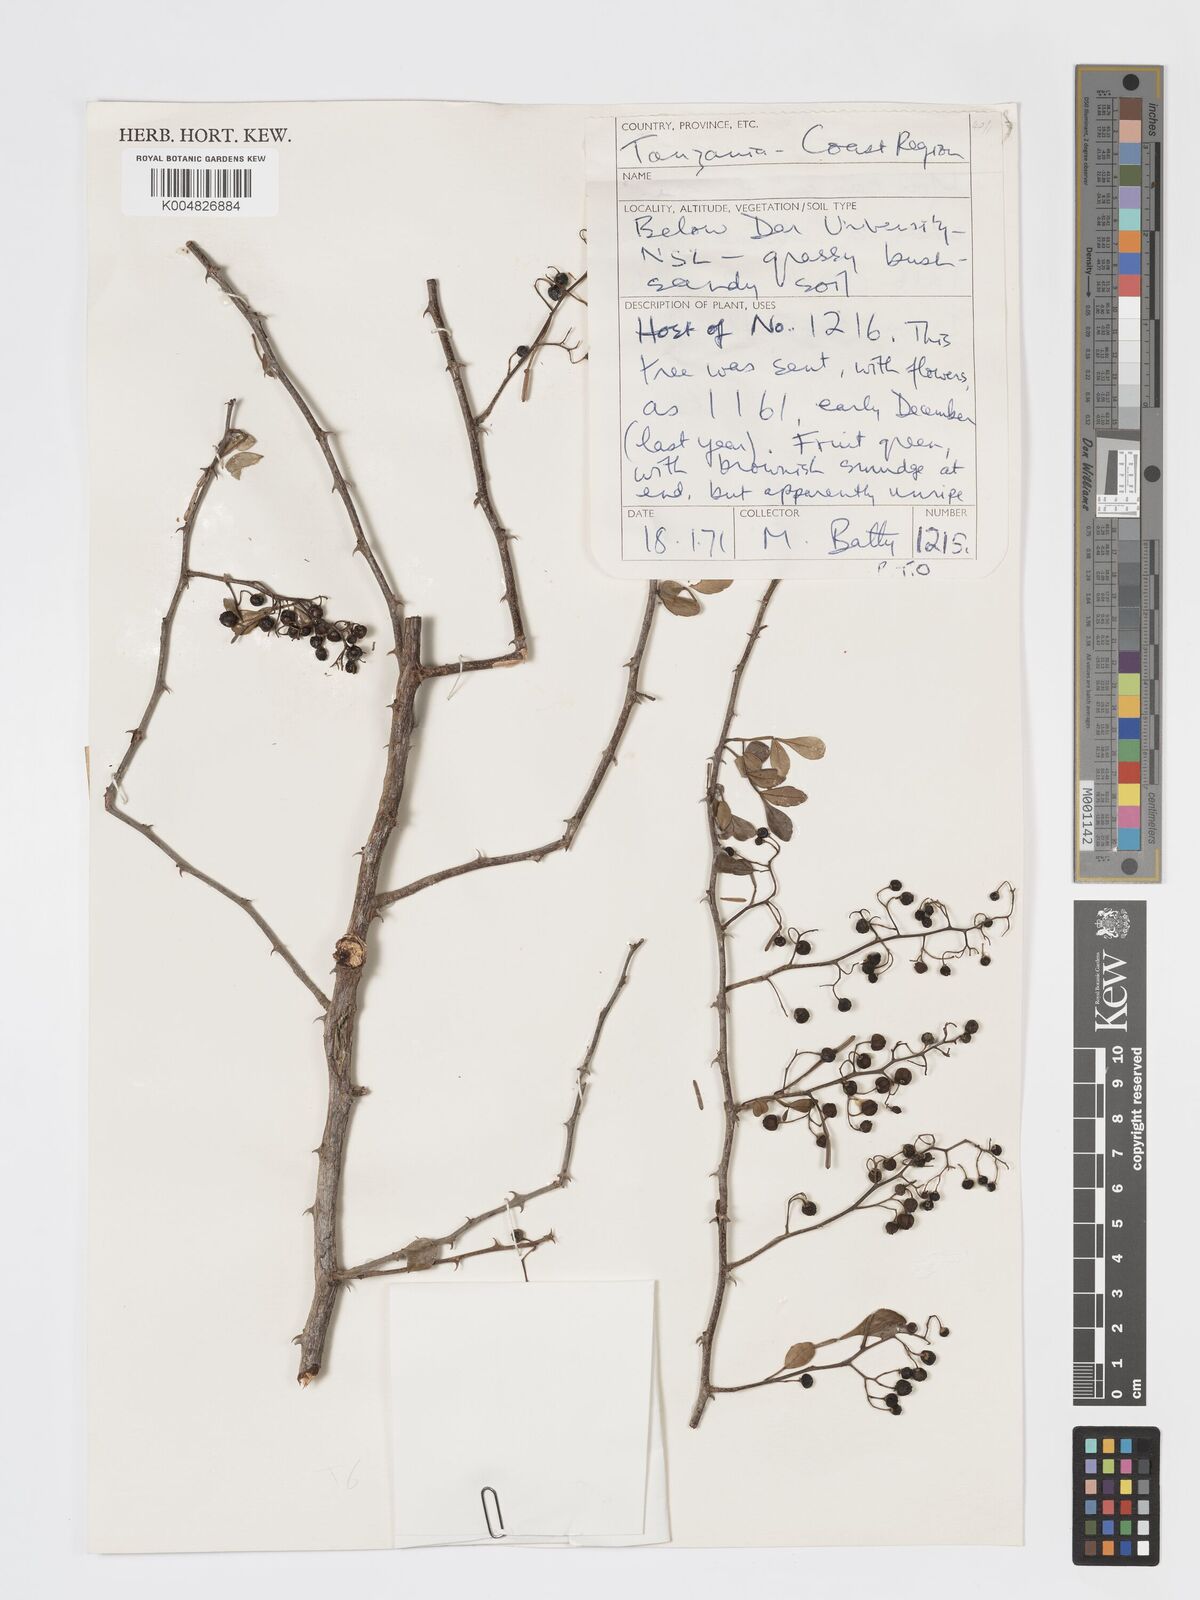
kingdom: Plantae
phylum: Tracheophyta
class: Magnoliopsida
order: Sapindales
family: Rutaceae
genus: Harrisonia
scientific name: Harrisonia abyssinica
